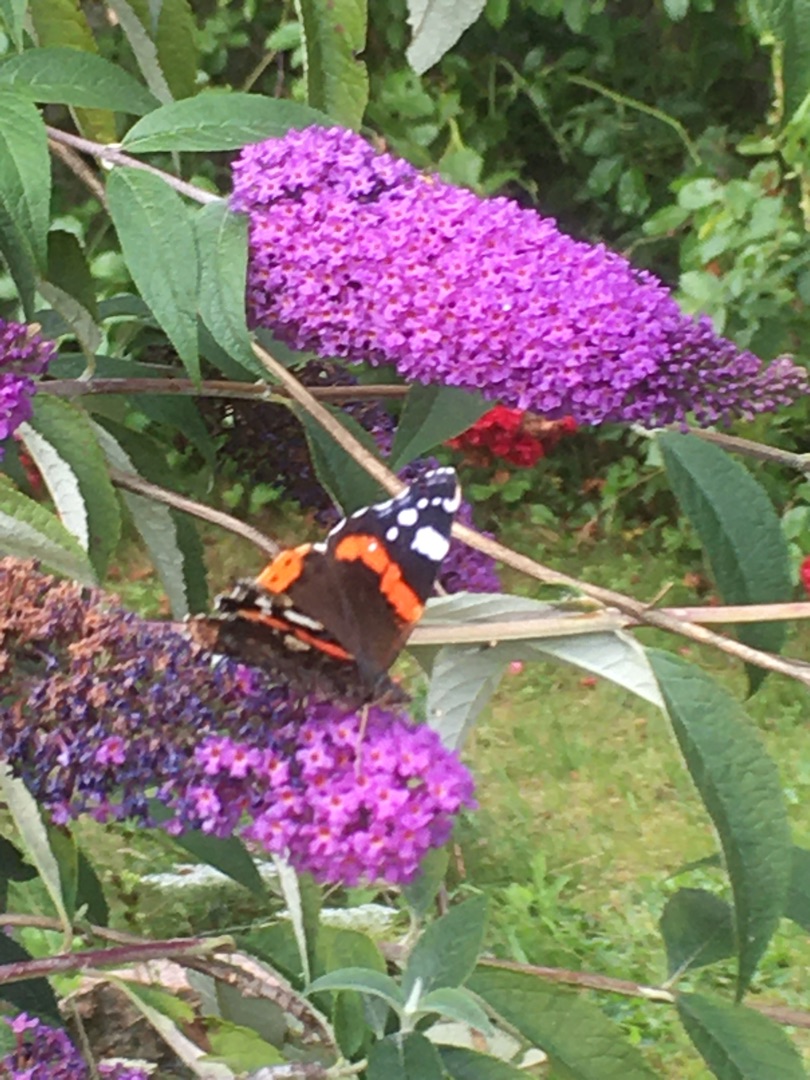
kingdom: Animalia
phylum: Arthropoda
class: Insecta
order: Lepidoptera
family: Nymphalidae
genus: Vanessa
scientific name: Vanessa atalanta
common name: Admiral
